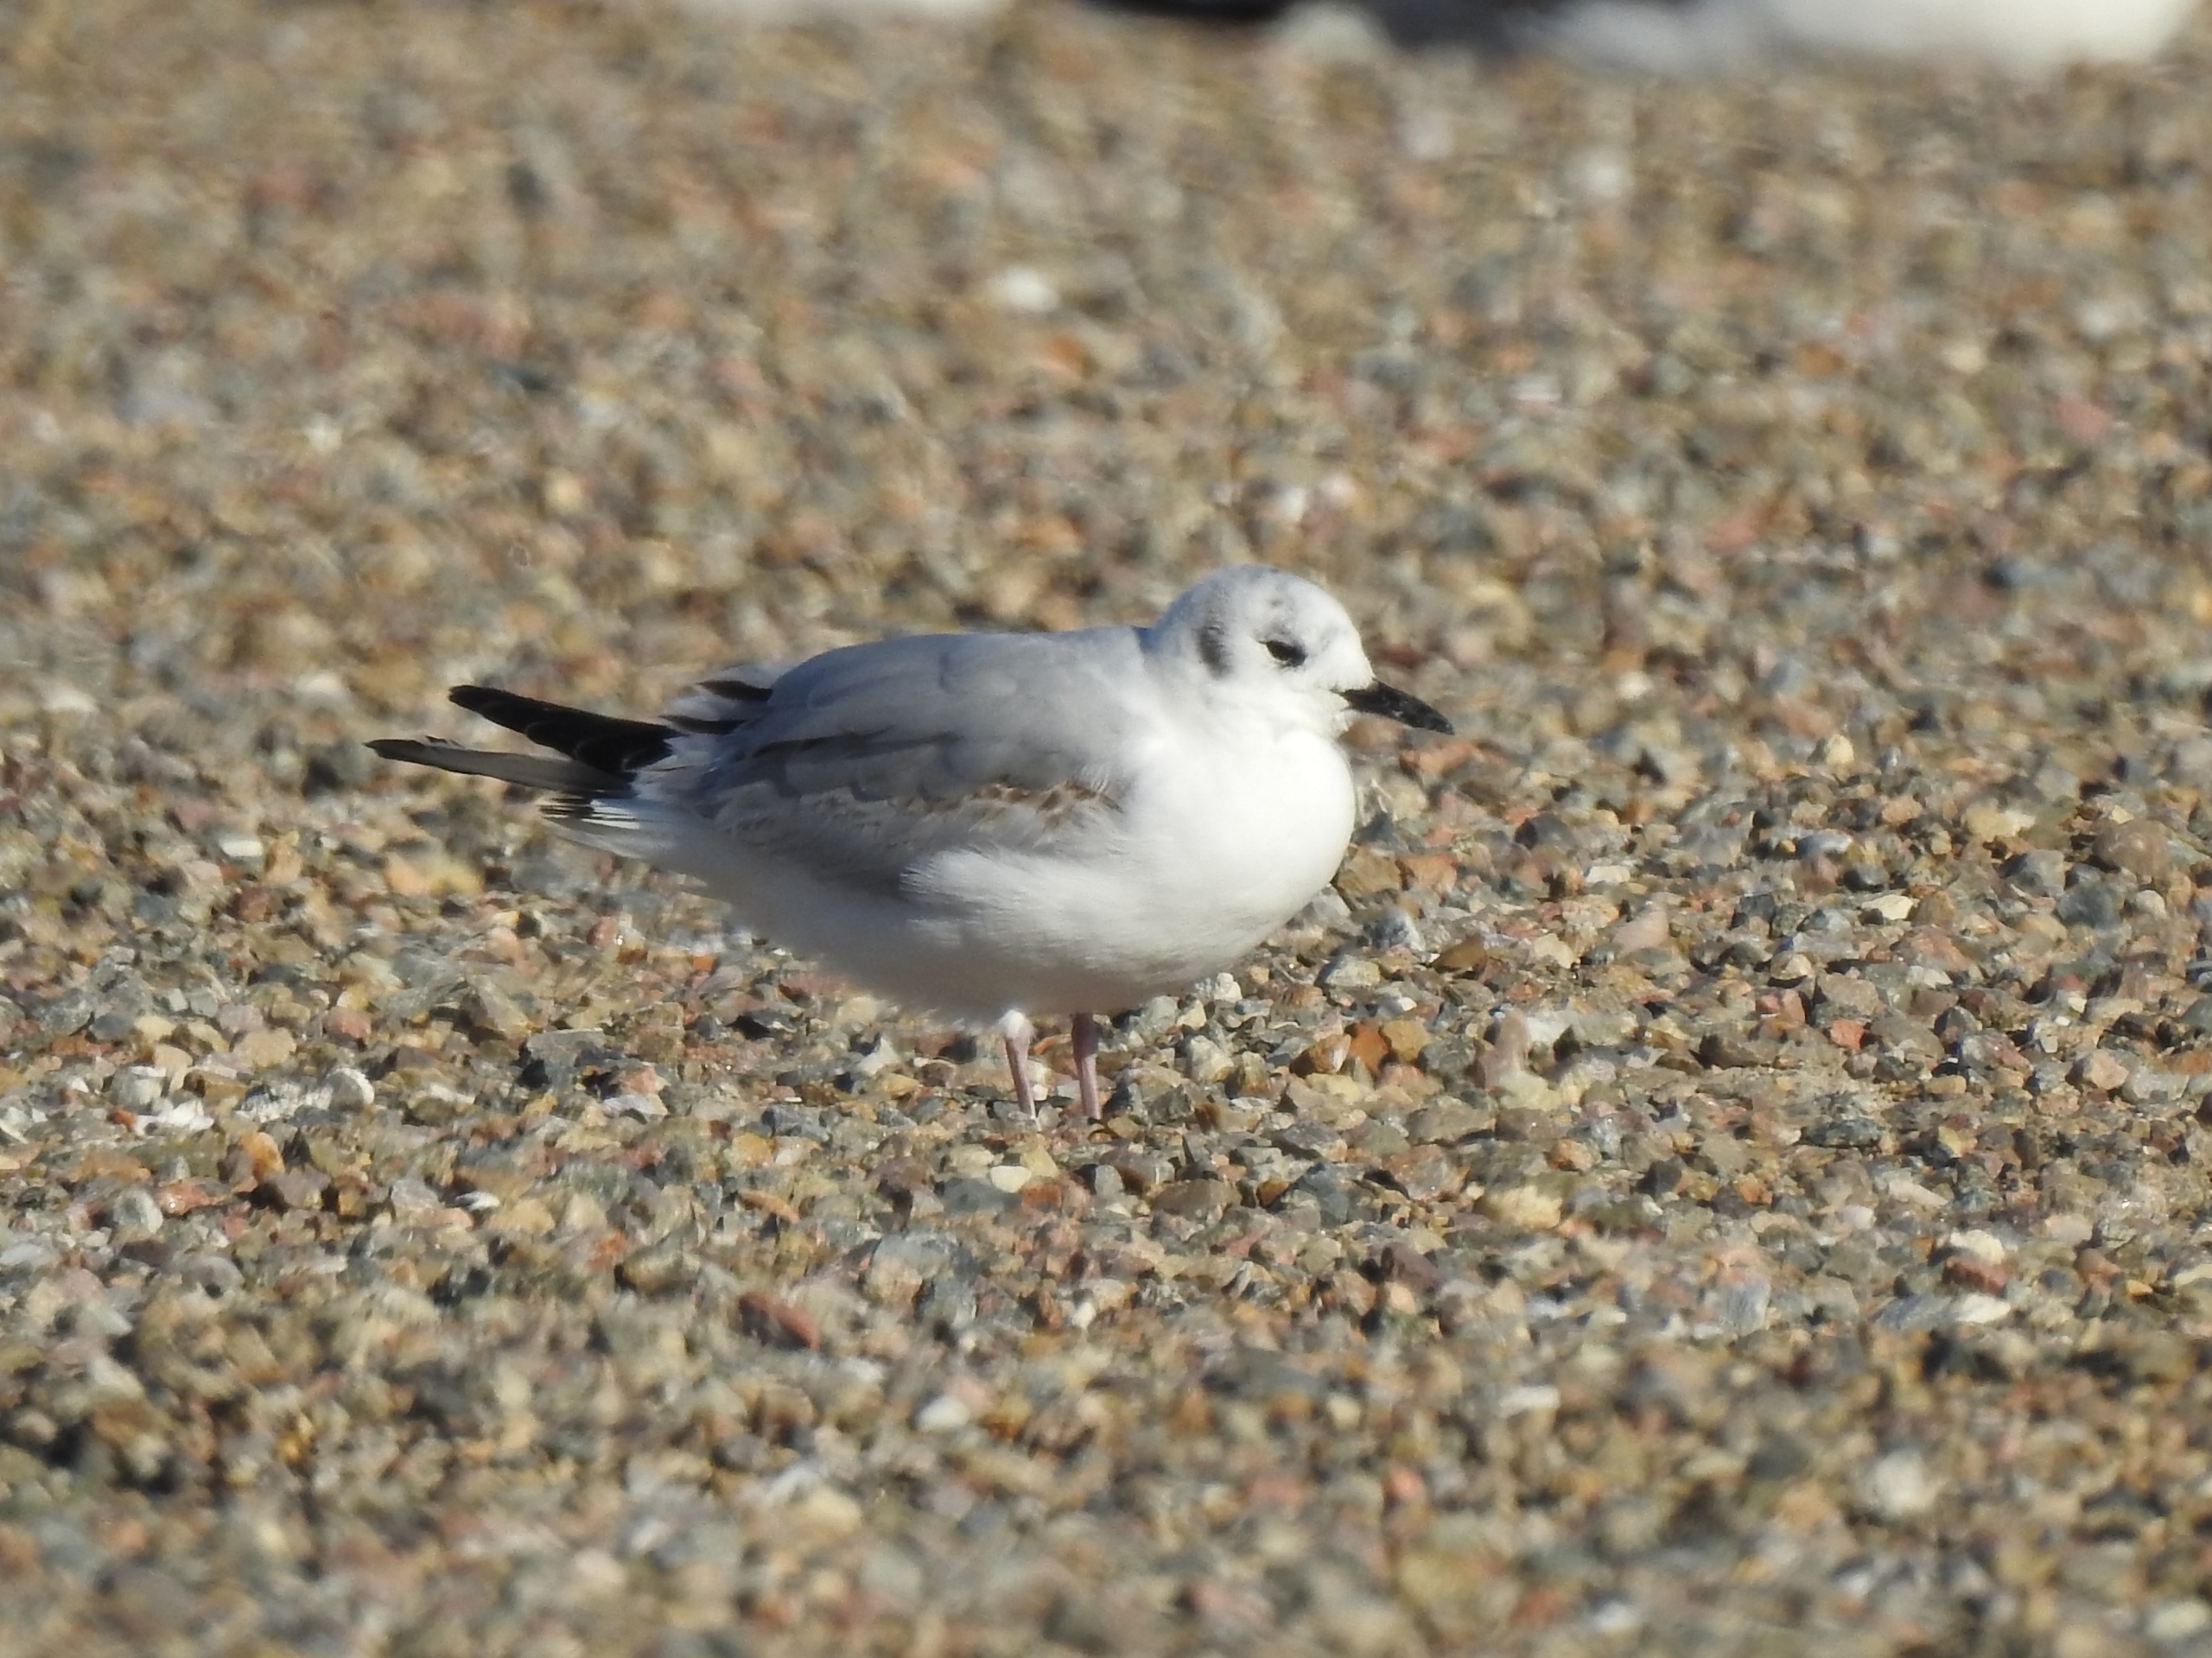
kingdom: Animalia
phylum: Chordata
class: Aves
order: Charadriiformes
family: Laridae
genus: Chroicocephalus
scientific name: Chroicocephalus philadelphia
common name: Bonapartemåge
